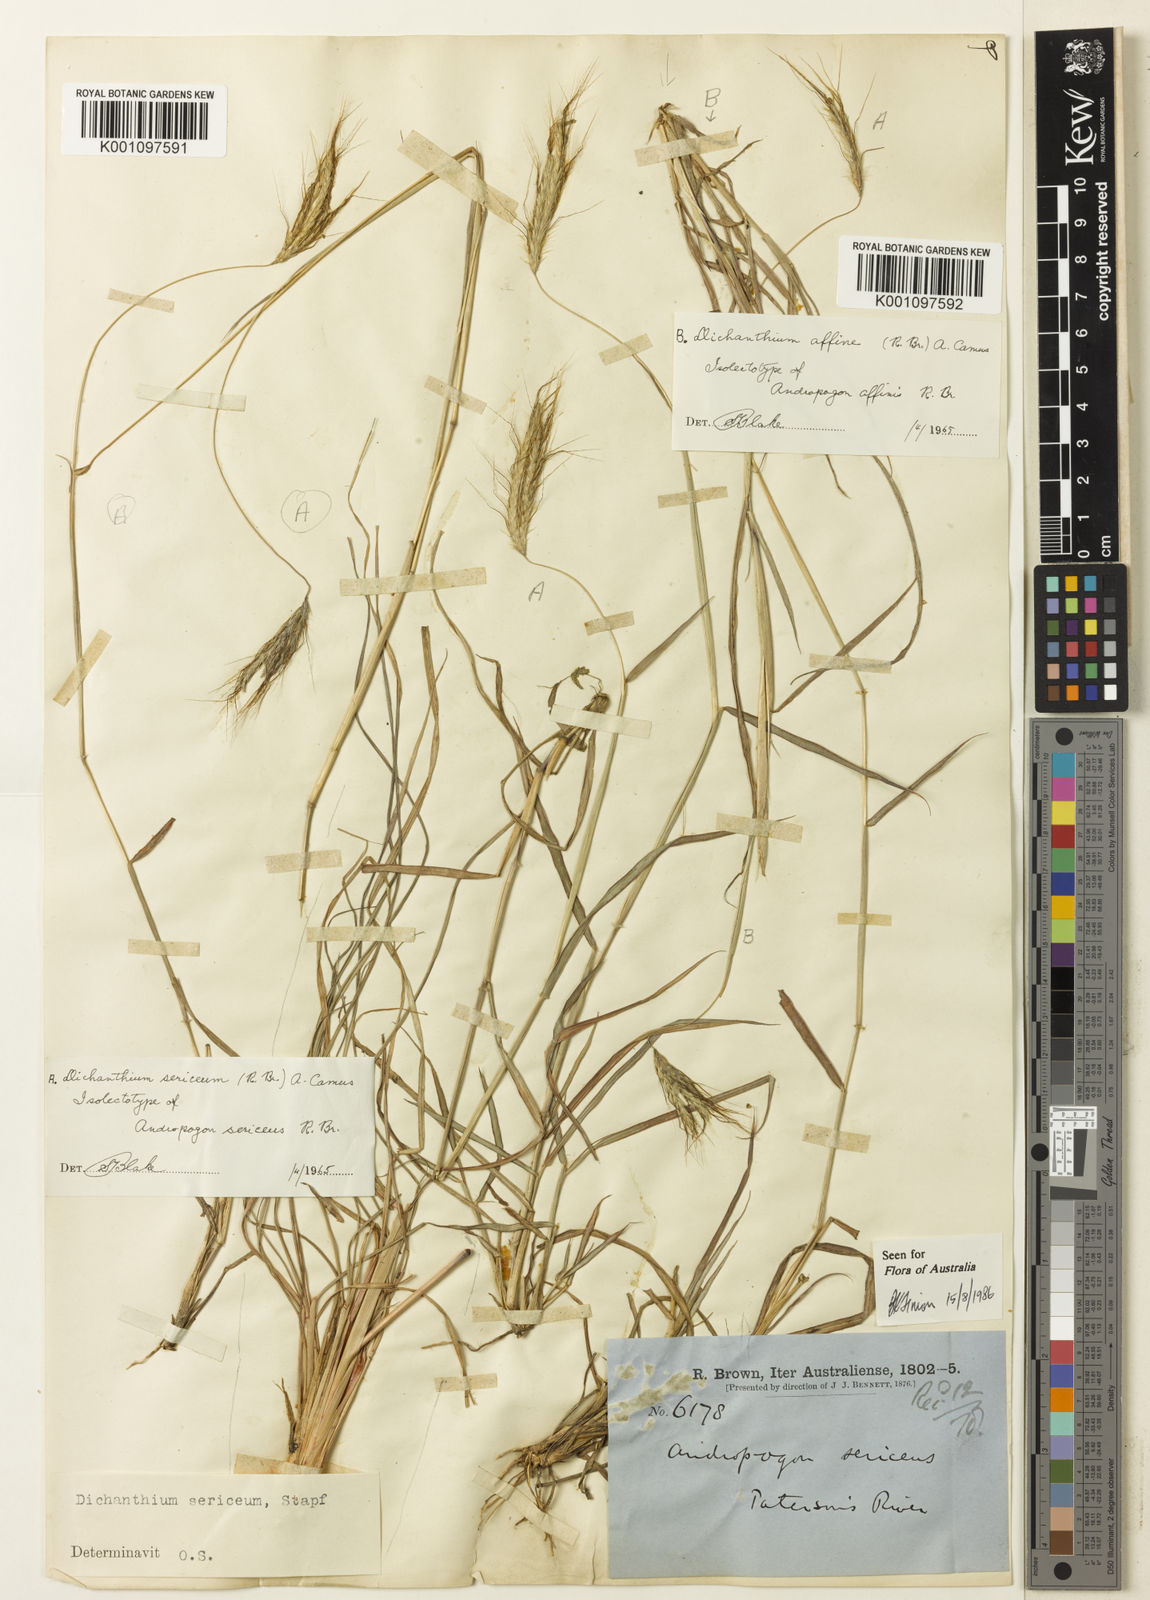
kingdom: Plantae
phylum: Tracheophyta
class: Liliopsida
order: Poales
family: Poaceae
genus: Dichanthium
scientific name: Dichanthium sericeum
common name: Silky bluestem
